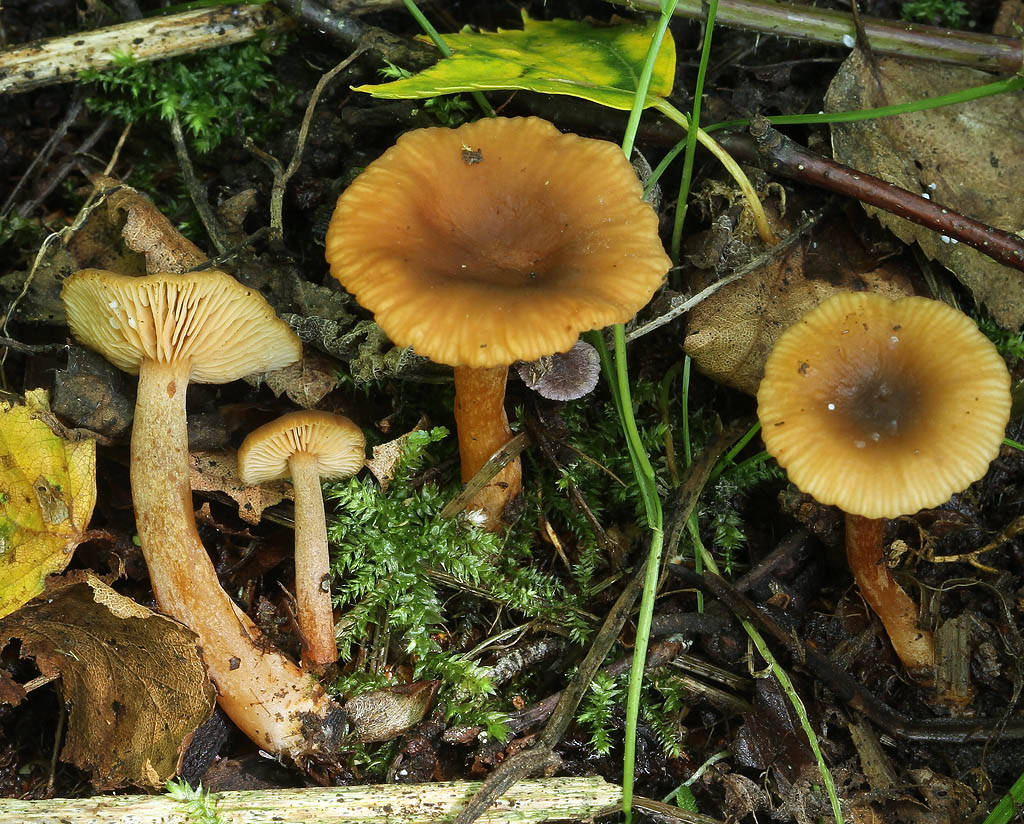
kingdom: Fungi
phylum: Basidiomycota
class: Agaricomycetes
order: Russulales
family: Russulaceae
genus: Lactarius
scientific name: Lactarius obscuratus
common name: elle-mælkehat
